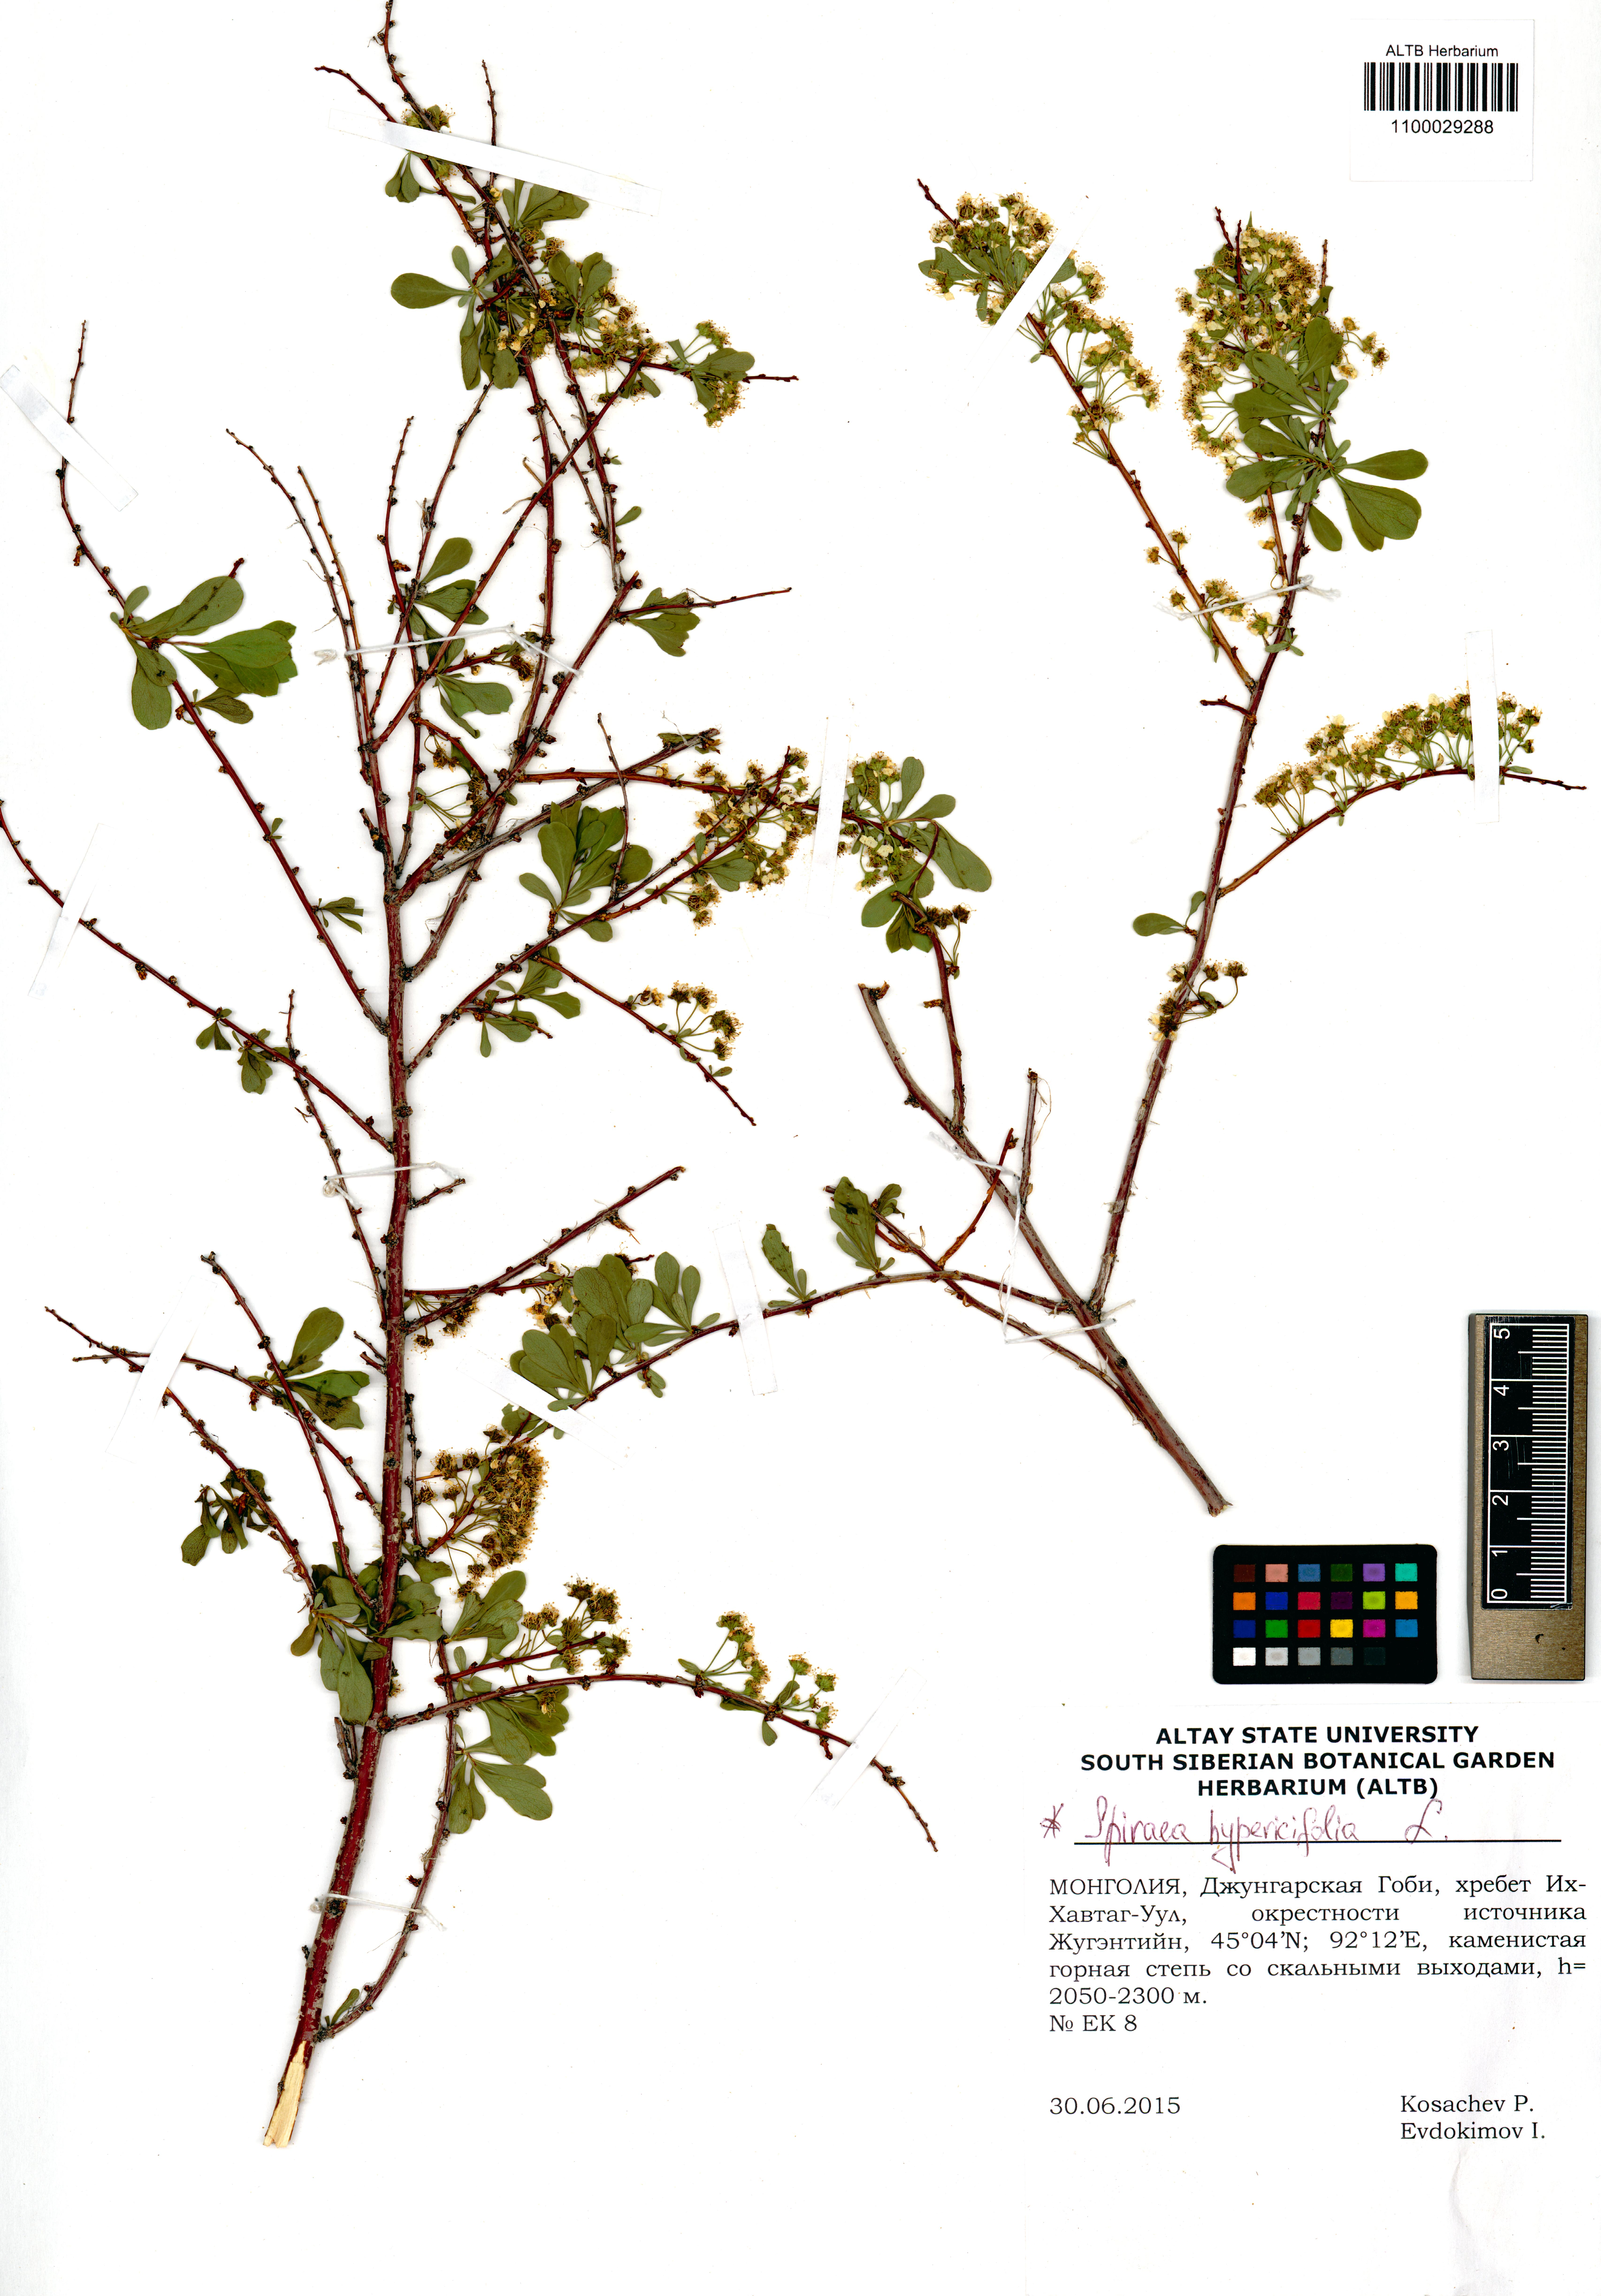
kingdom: Plantae
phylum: Tracheophyta
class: Magnoliopsida
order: Rosales
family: Rosaceae
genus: Spiraea
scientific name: Spiraea hypericifolia
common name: Iberian spirea
